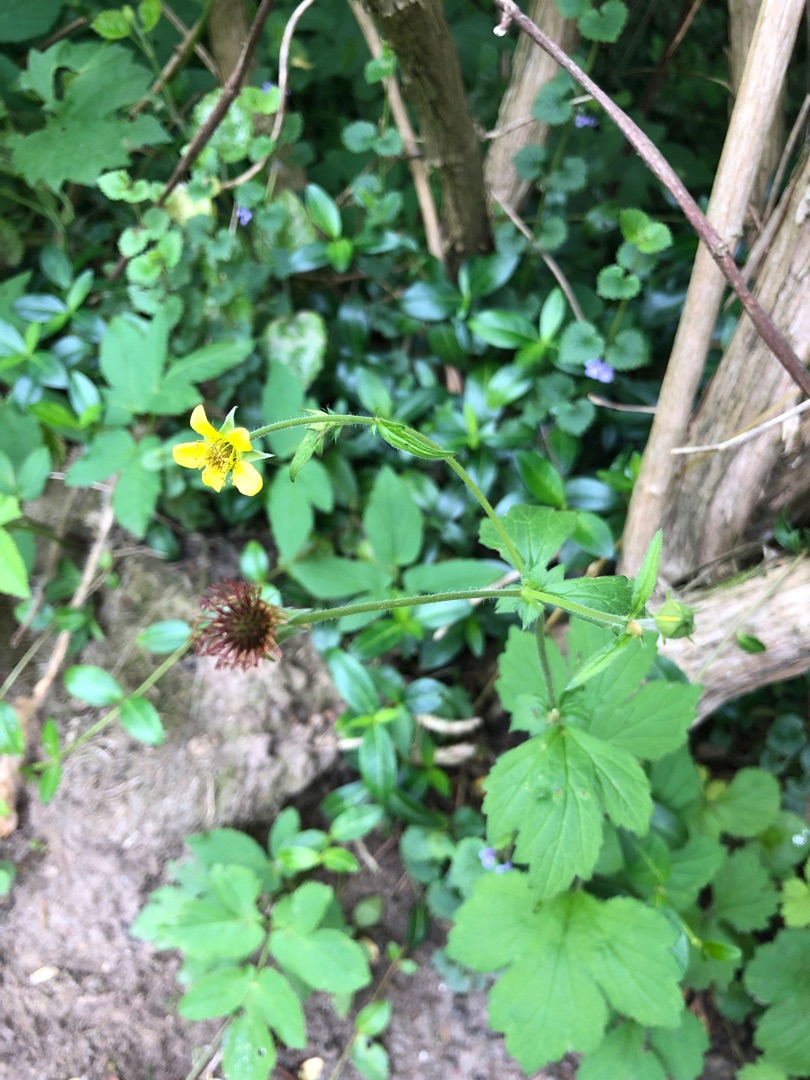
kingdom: Plantae
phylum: Tracheophyta
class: Magnoliopsida
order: Rosales
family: Rosaceae
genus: Geum
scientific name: Geum urbanum
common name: Feber-nellikerod
